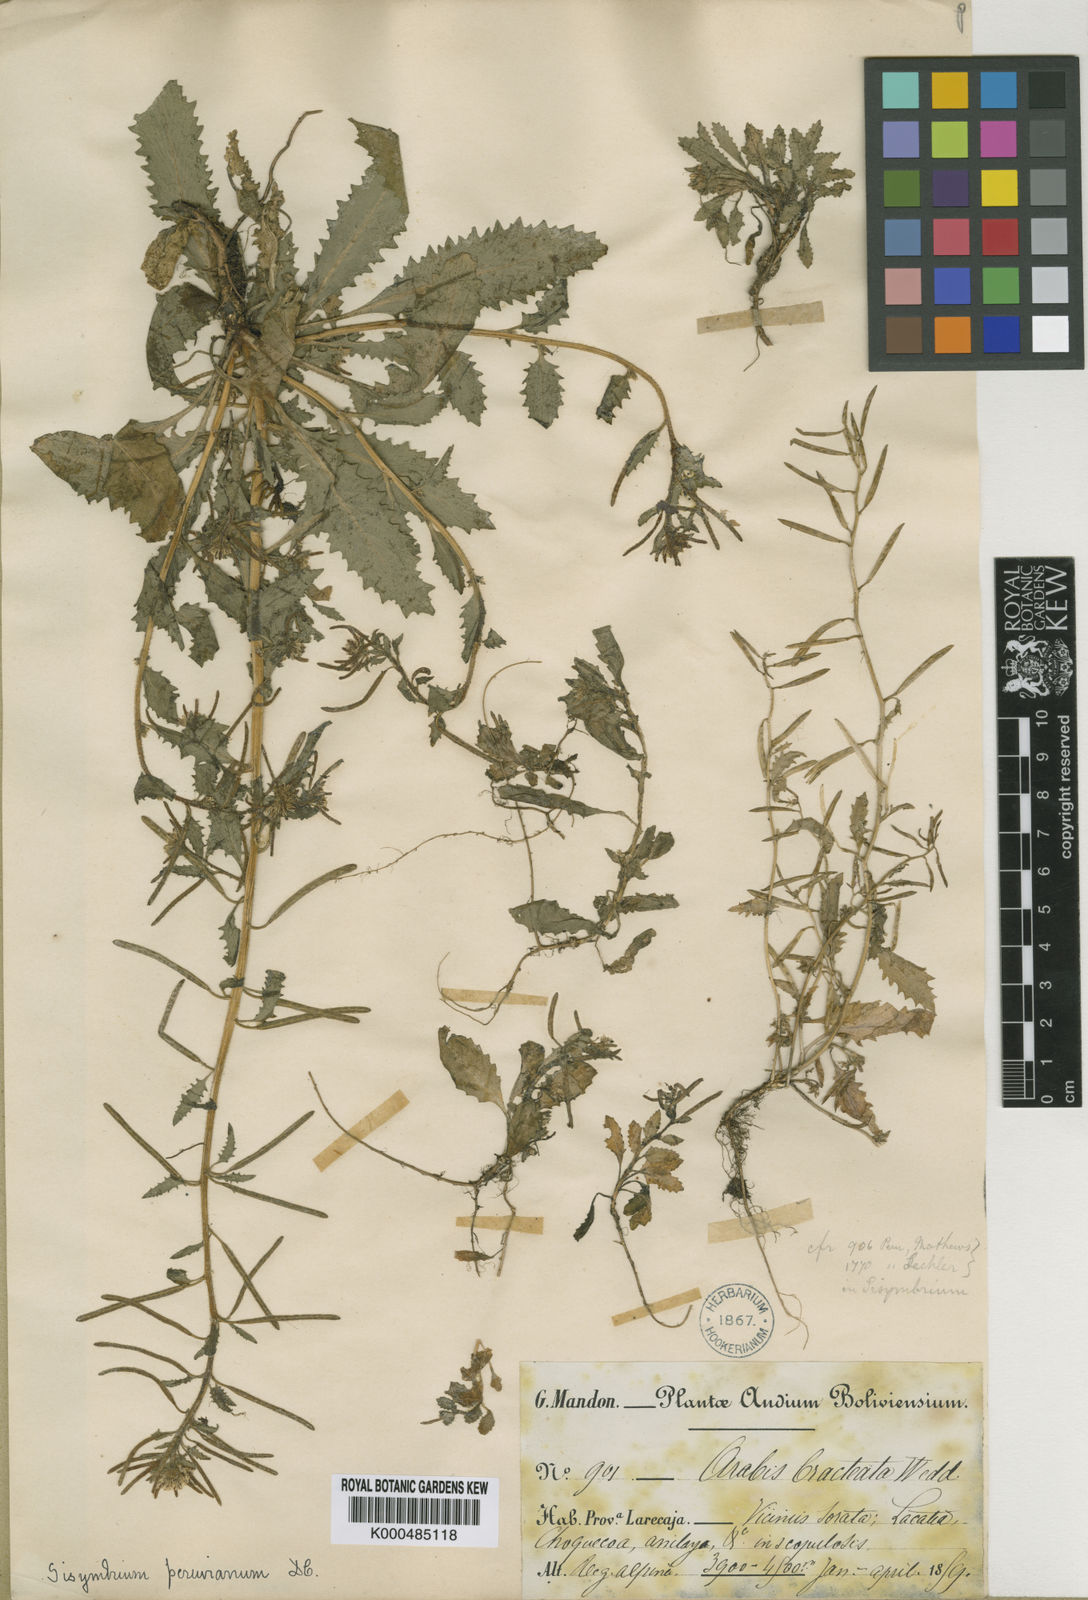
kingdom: Plantae
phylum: Tracheophyta
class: Magnoliopsida
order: Brassicales
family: Brassicaceae
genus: Weberbauera
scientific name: Weberbauera peruviana
